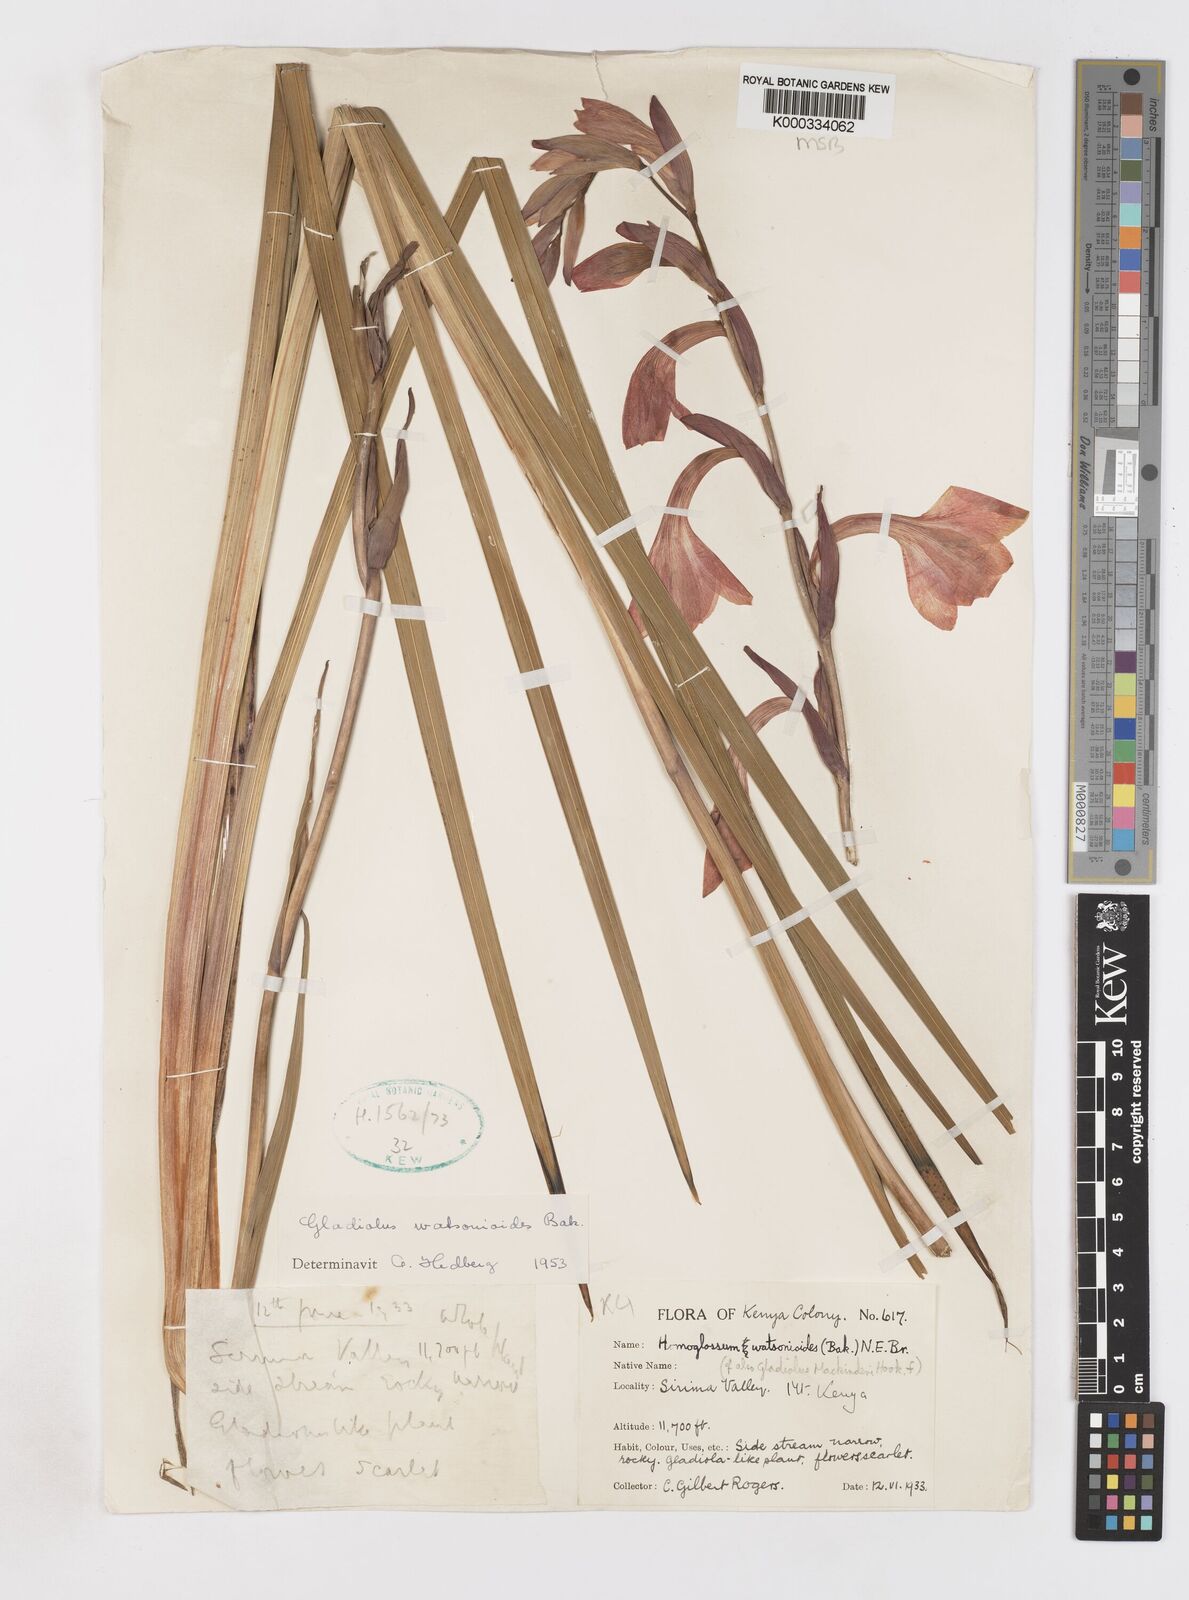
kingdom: Plantae
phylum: Tracheophyta
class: Liliopsida
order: Asparagales
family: Iridaceae
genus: Gladiolus
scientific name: Gladiolus watsonioides
